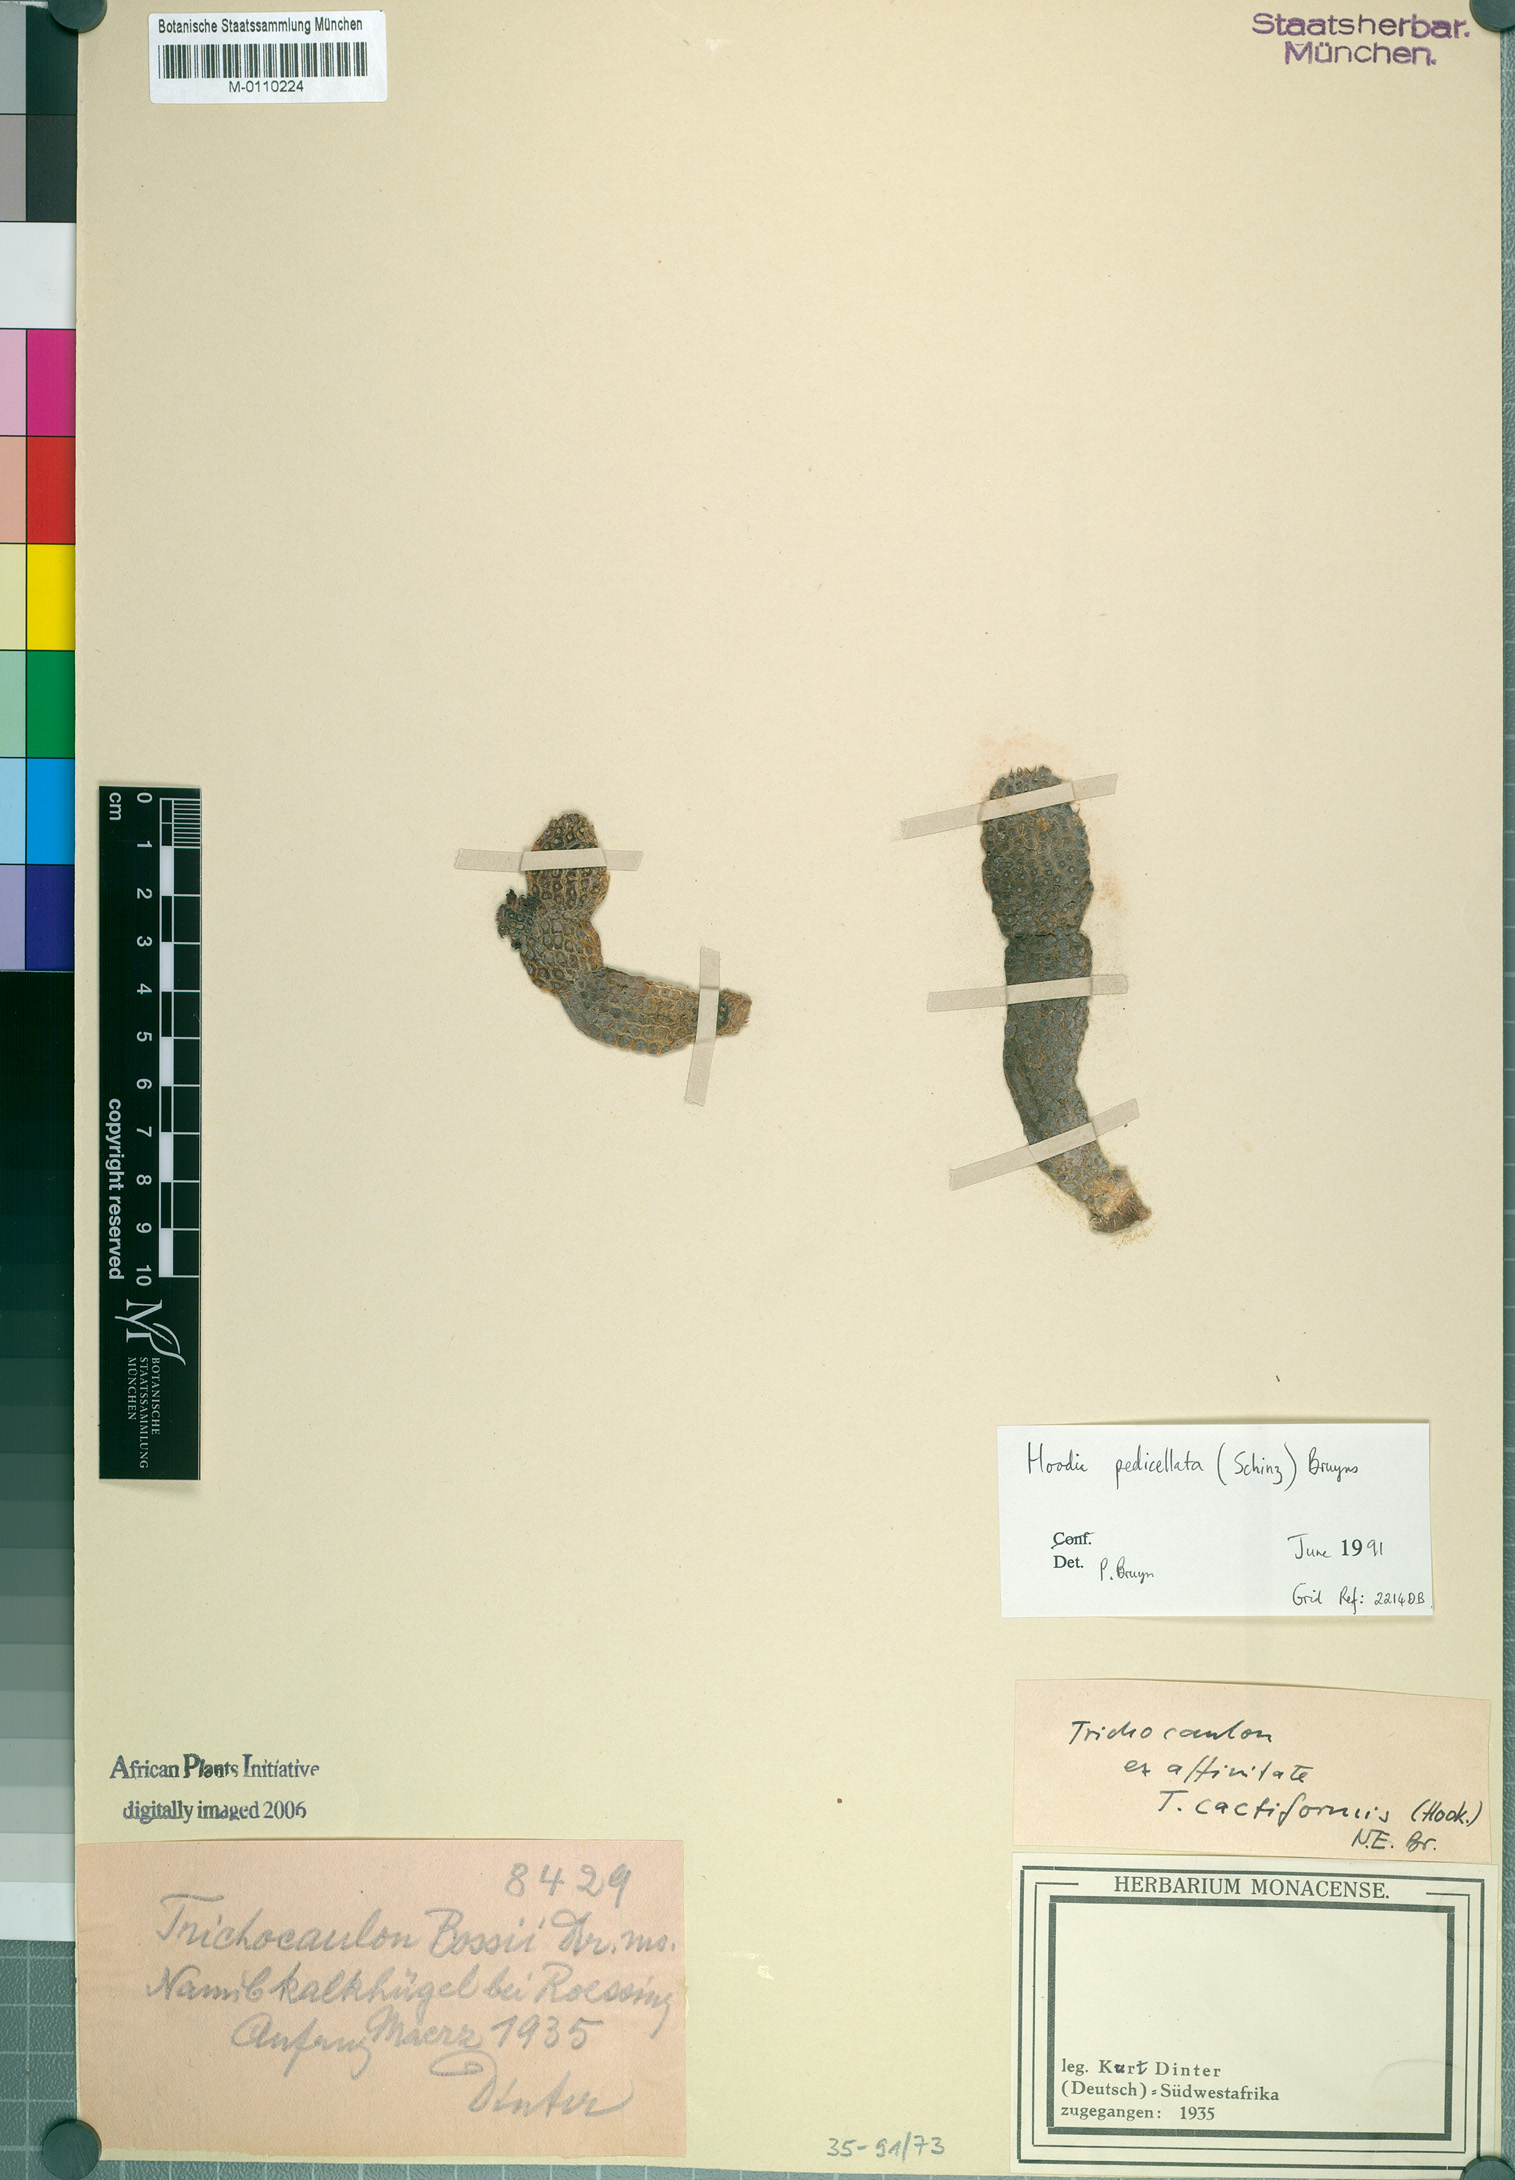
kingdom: Plantae
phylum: Tracheophyta
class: Magnoliopsida
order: Gentianales
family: Apocynaceae
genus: Ceropegia
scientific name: Ceropegia pedicellata
